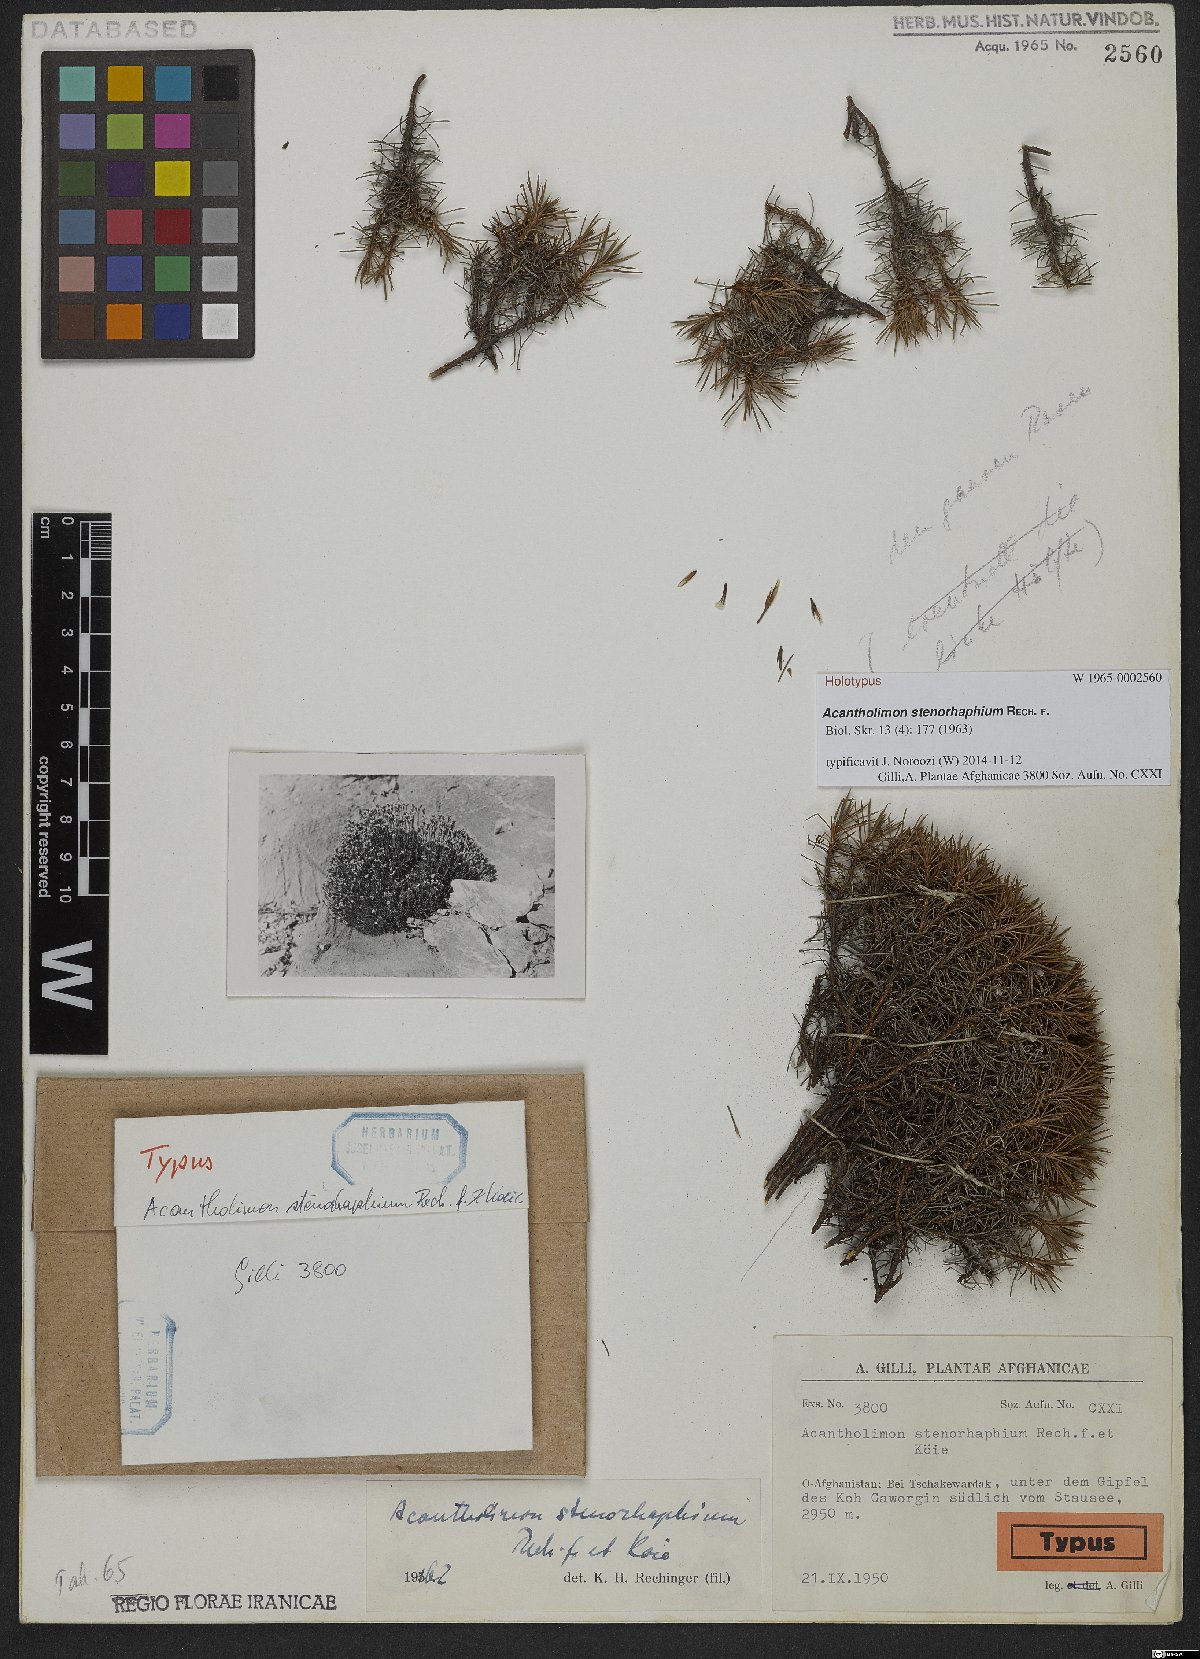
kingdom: Plantae
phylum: Tracheophyta
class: Magnoliopsida
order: Caryophyllales
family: Plumbaginaceae
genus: Acantholimon
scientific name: Acantholimon stenorhaphium
